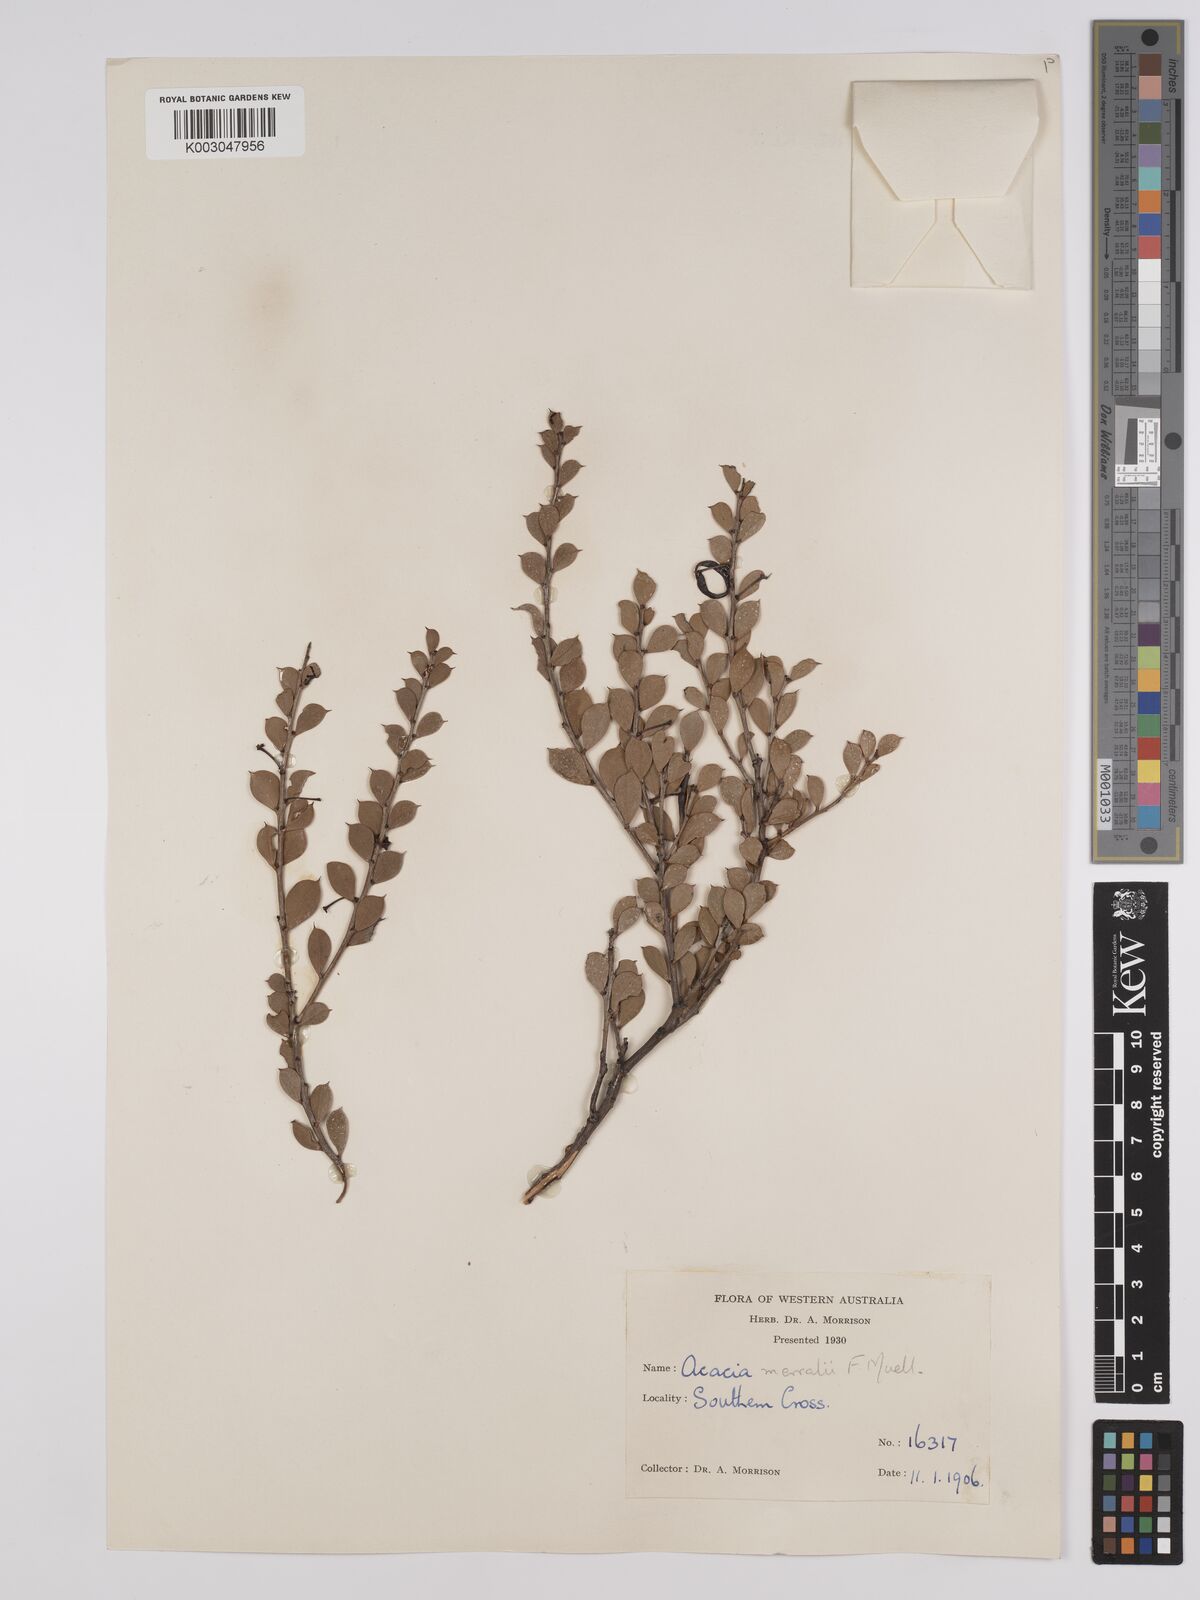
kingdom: Plantae
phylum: Tracheophyta
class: Magnoliopsida
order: Fabales
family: Fabaceae
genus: Acacia
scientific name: Acacia merrallii
